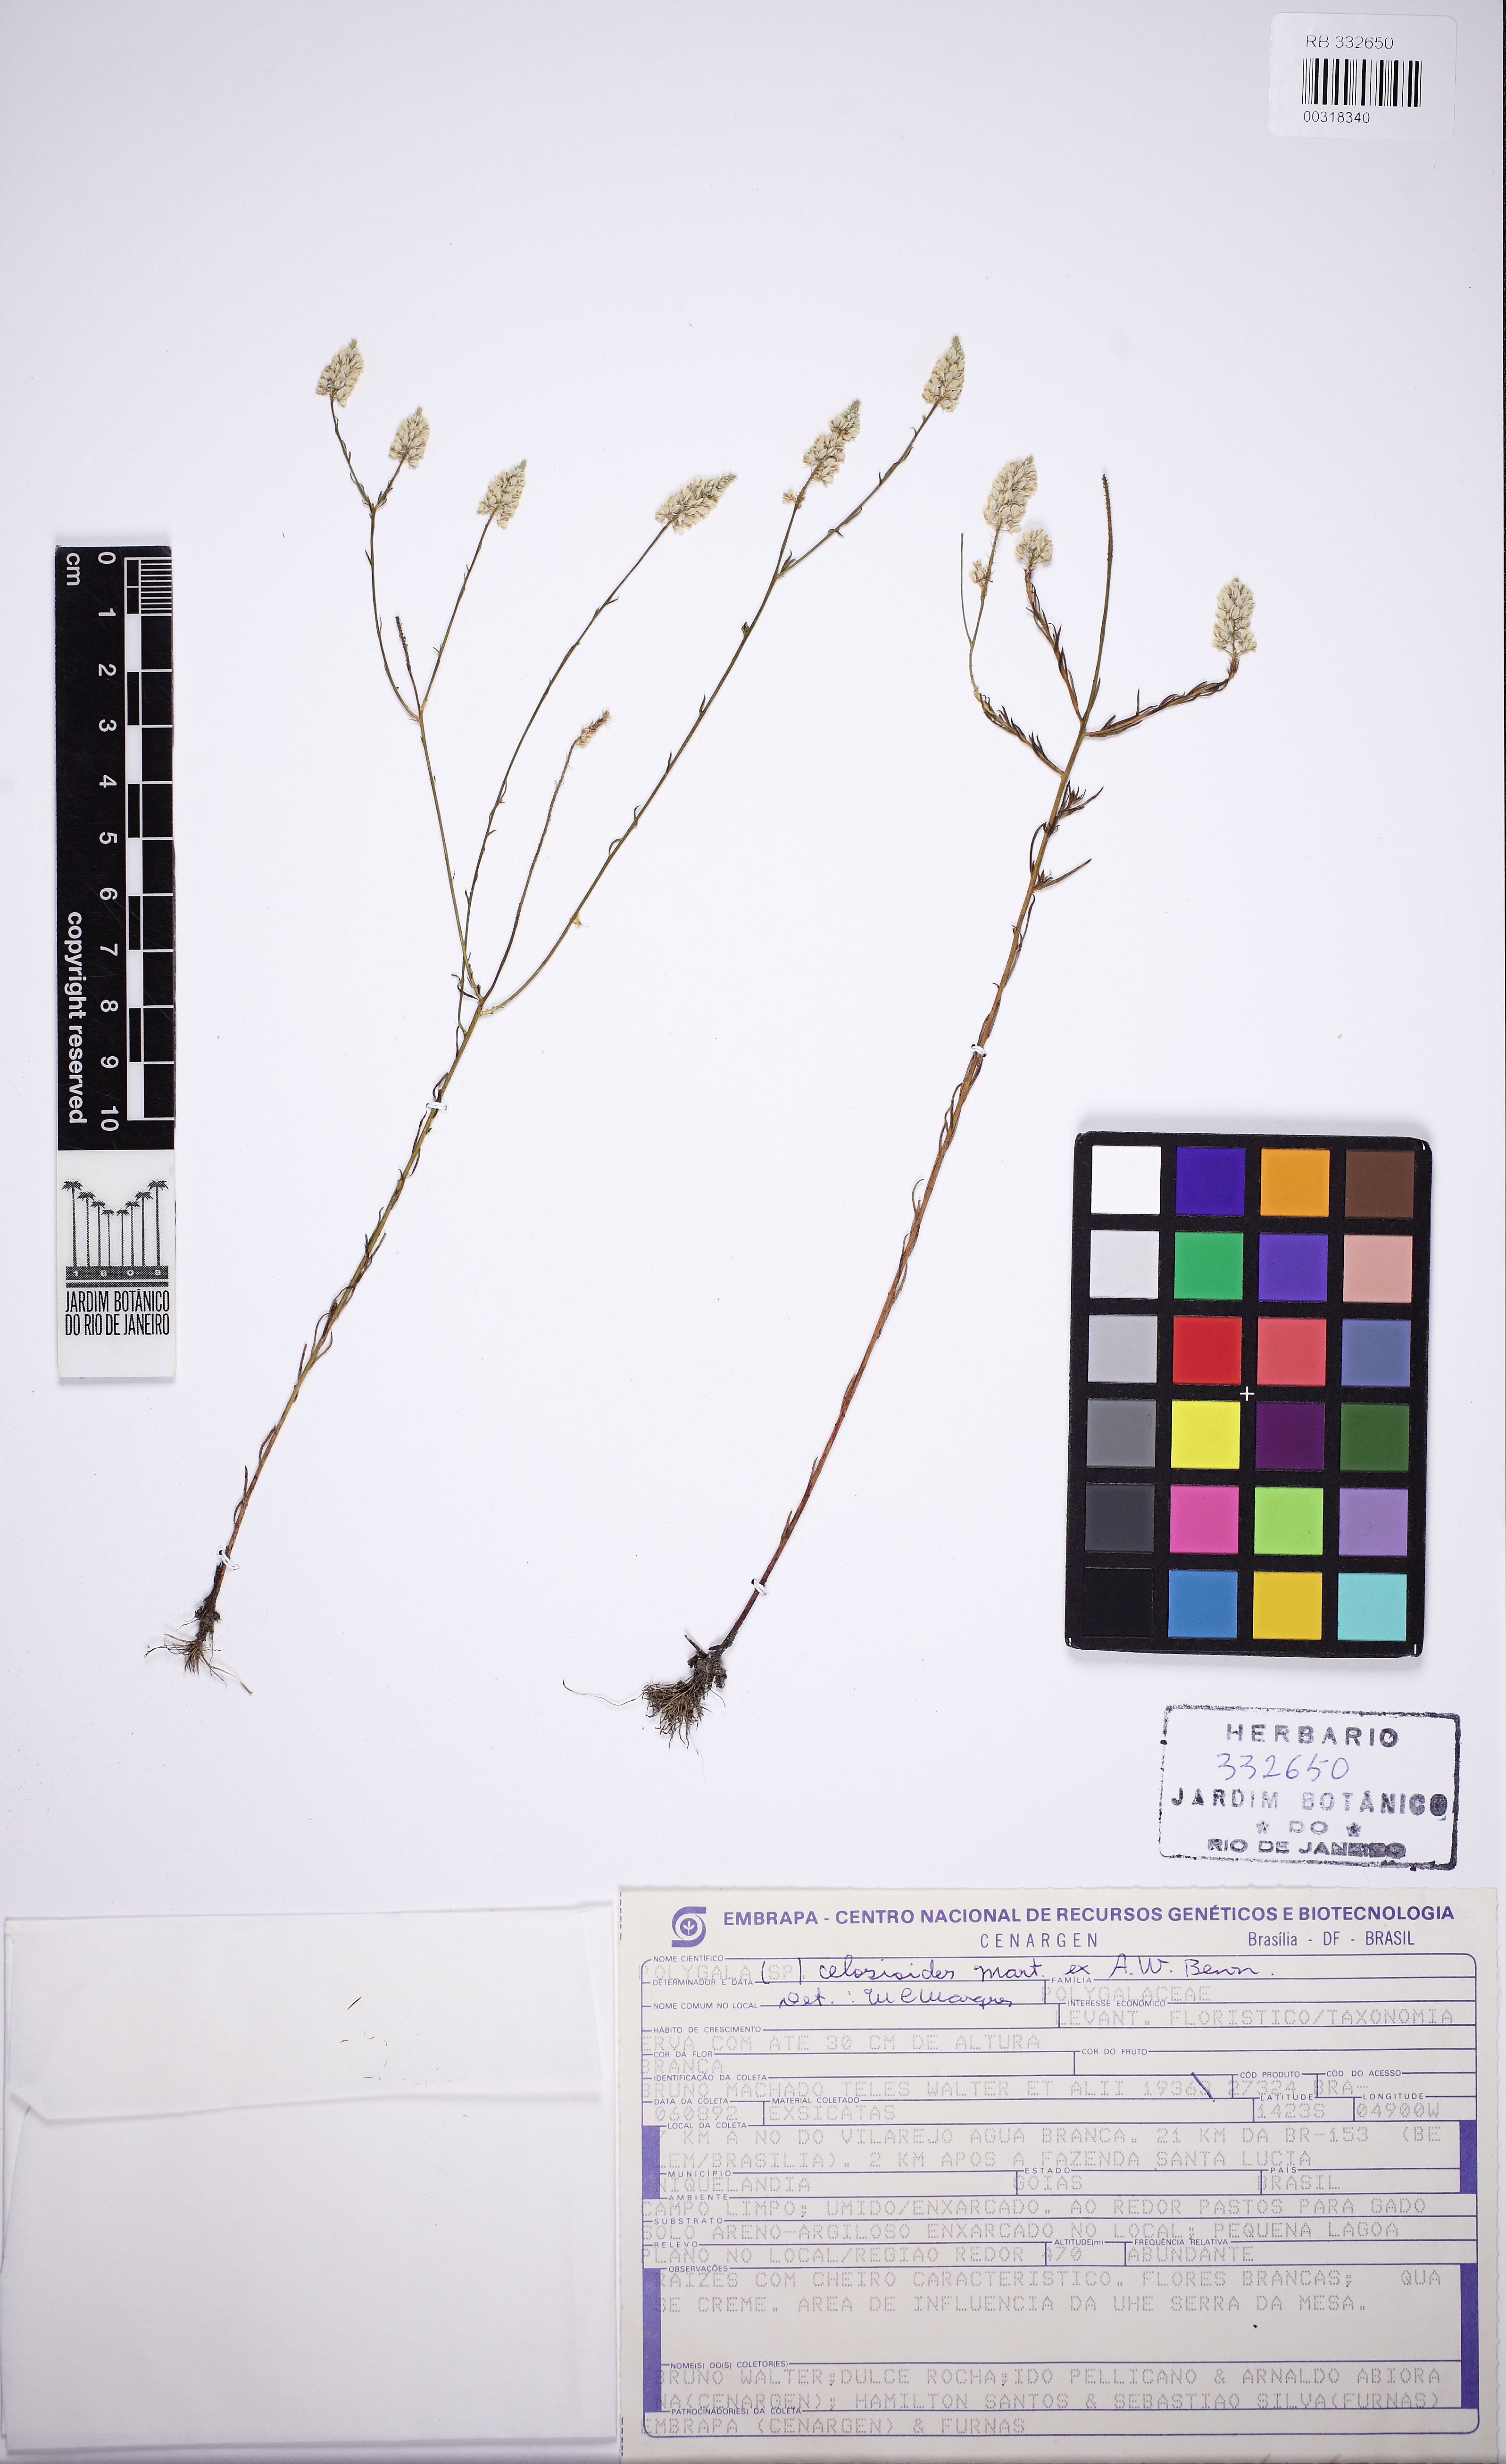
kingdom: Plantae
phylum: Tracheophyta
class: Magnoliopsida
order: Fabales
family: Polygalaceae
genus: Polygala
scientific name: Polygala celosioides
